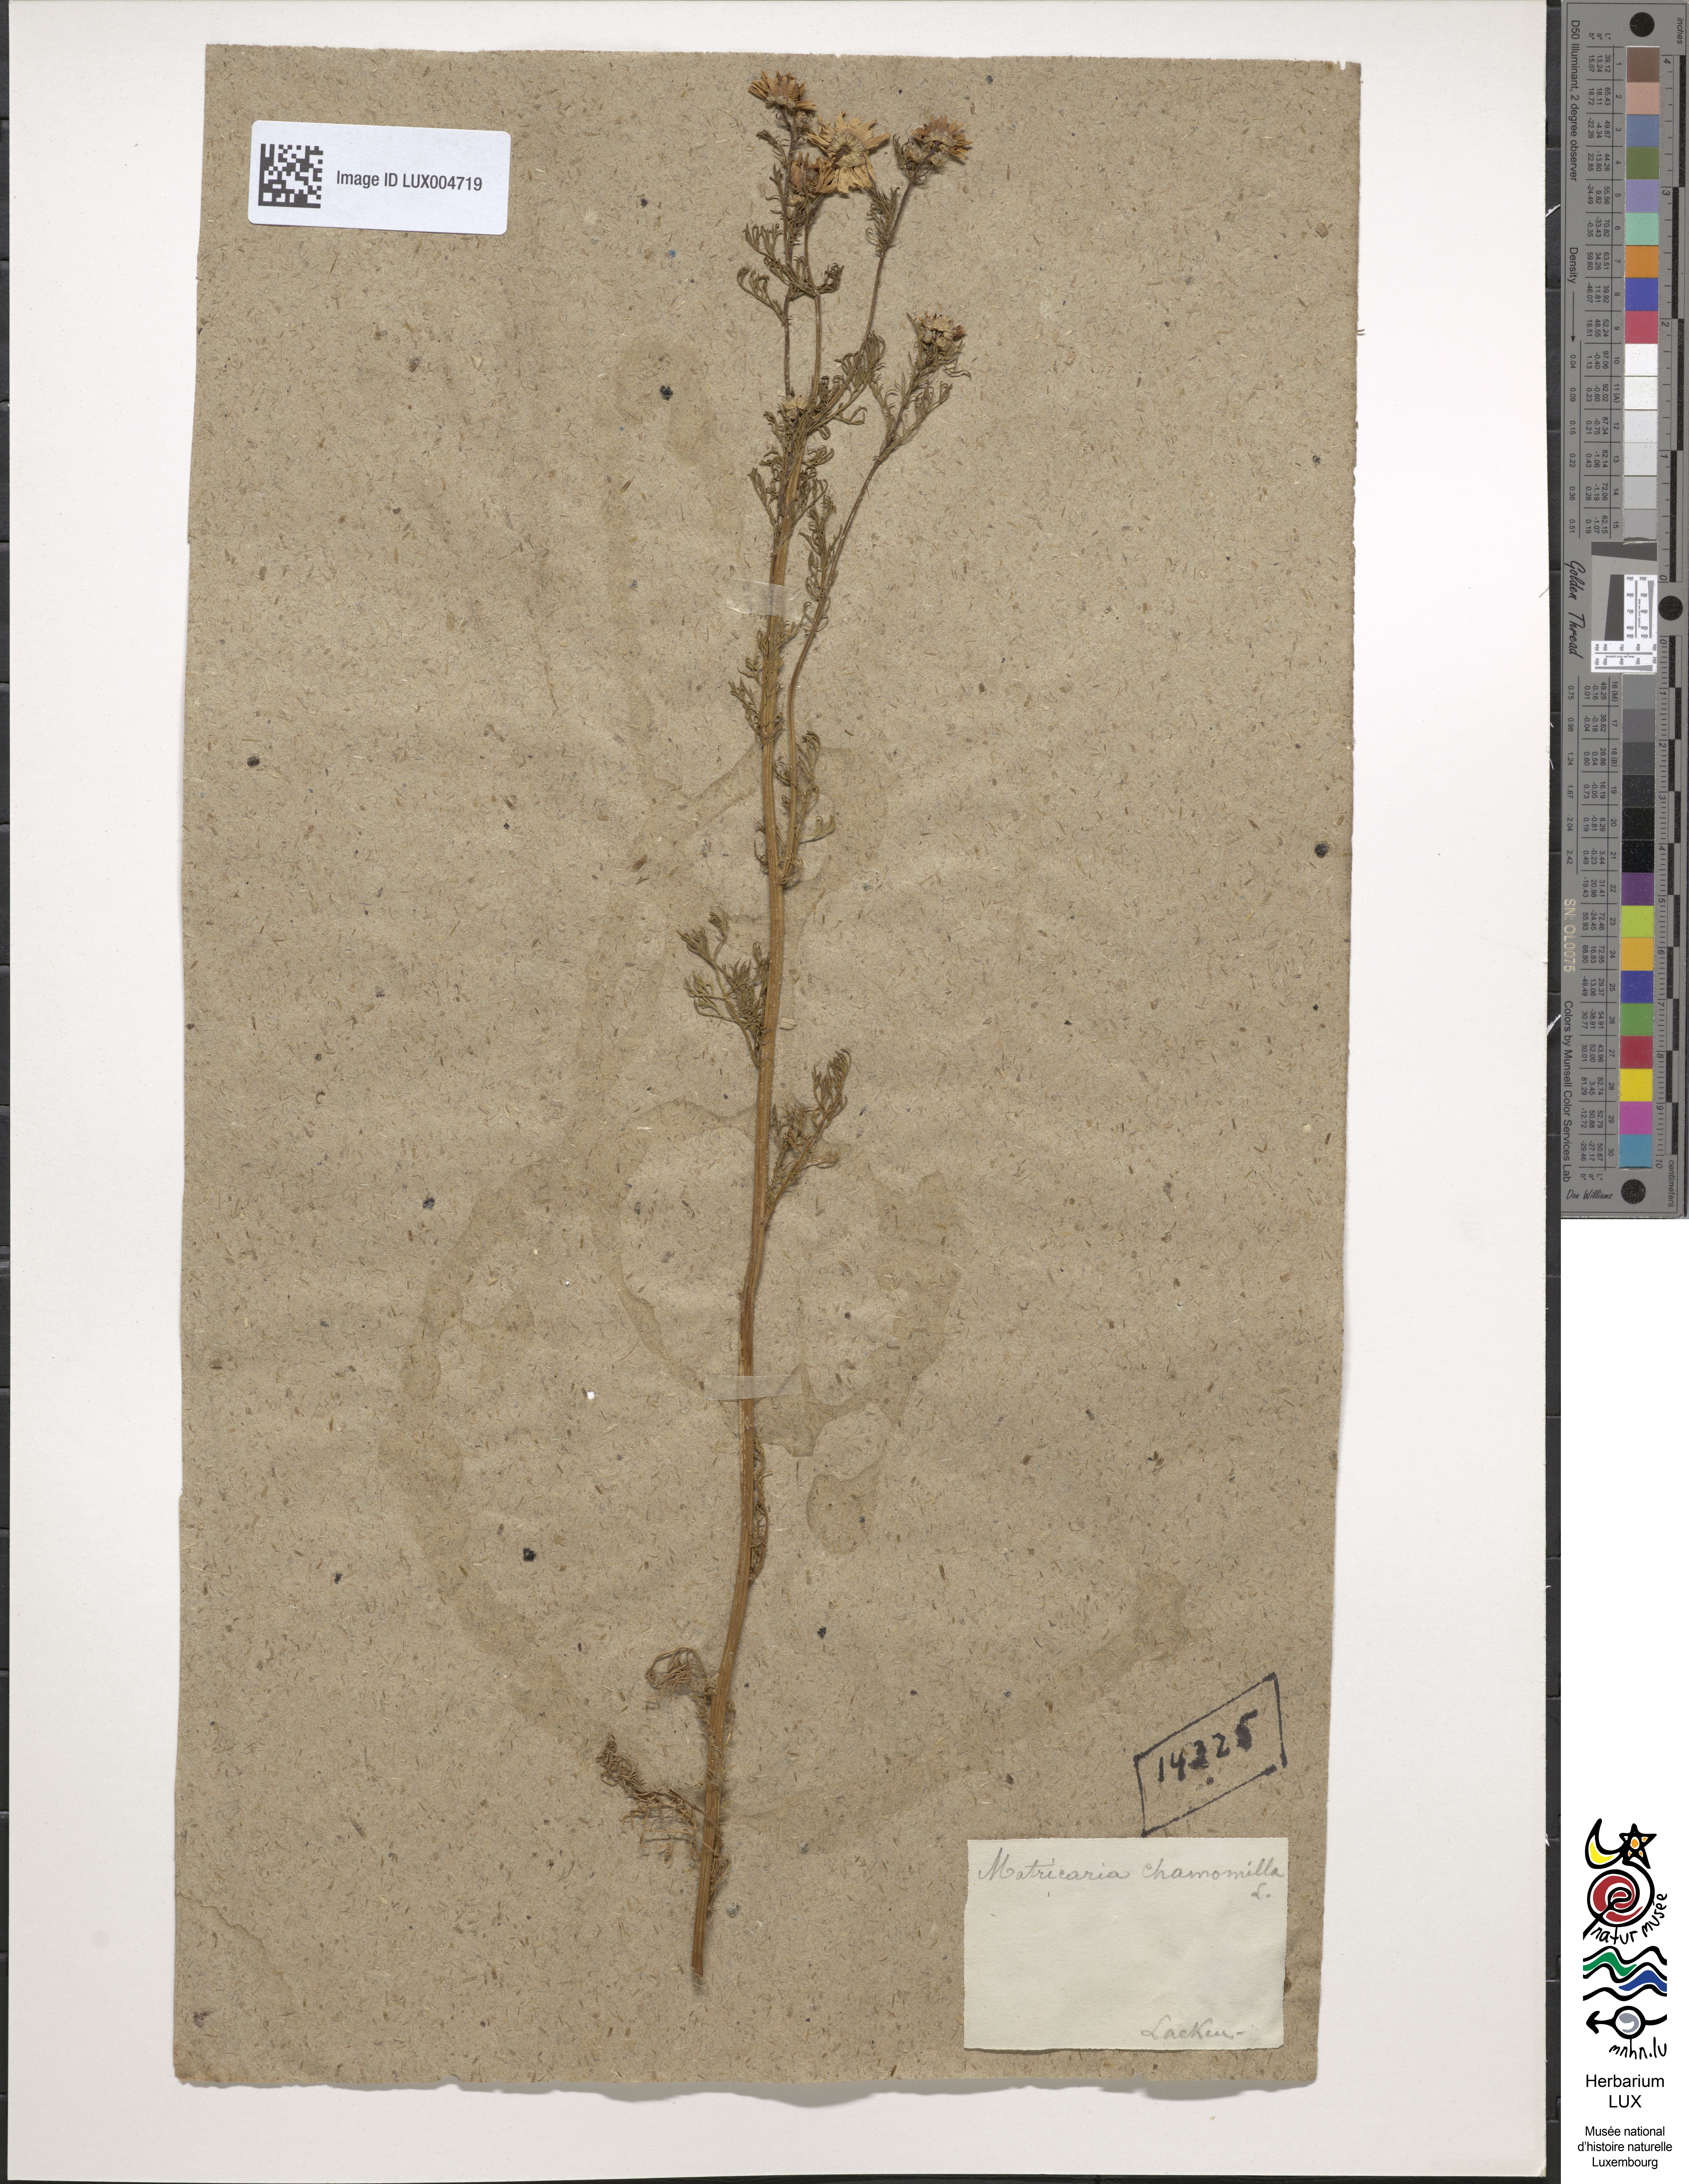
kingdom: Plantae
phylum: Tracheophyta
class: Magnoliopsida
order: Asterales
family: Asteraceae
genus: Matricaria
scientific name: Matricaria chamomilla
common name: Scented mayweed
